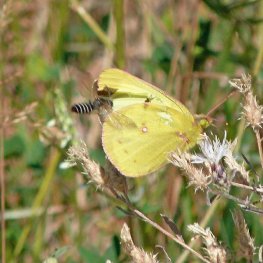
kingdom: Animalia
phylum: Arthropoda
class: Insecta
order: Lepidoptera
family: Pieridae
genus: Colias
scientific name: Colias philodice
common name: Clouded Sulphur
